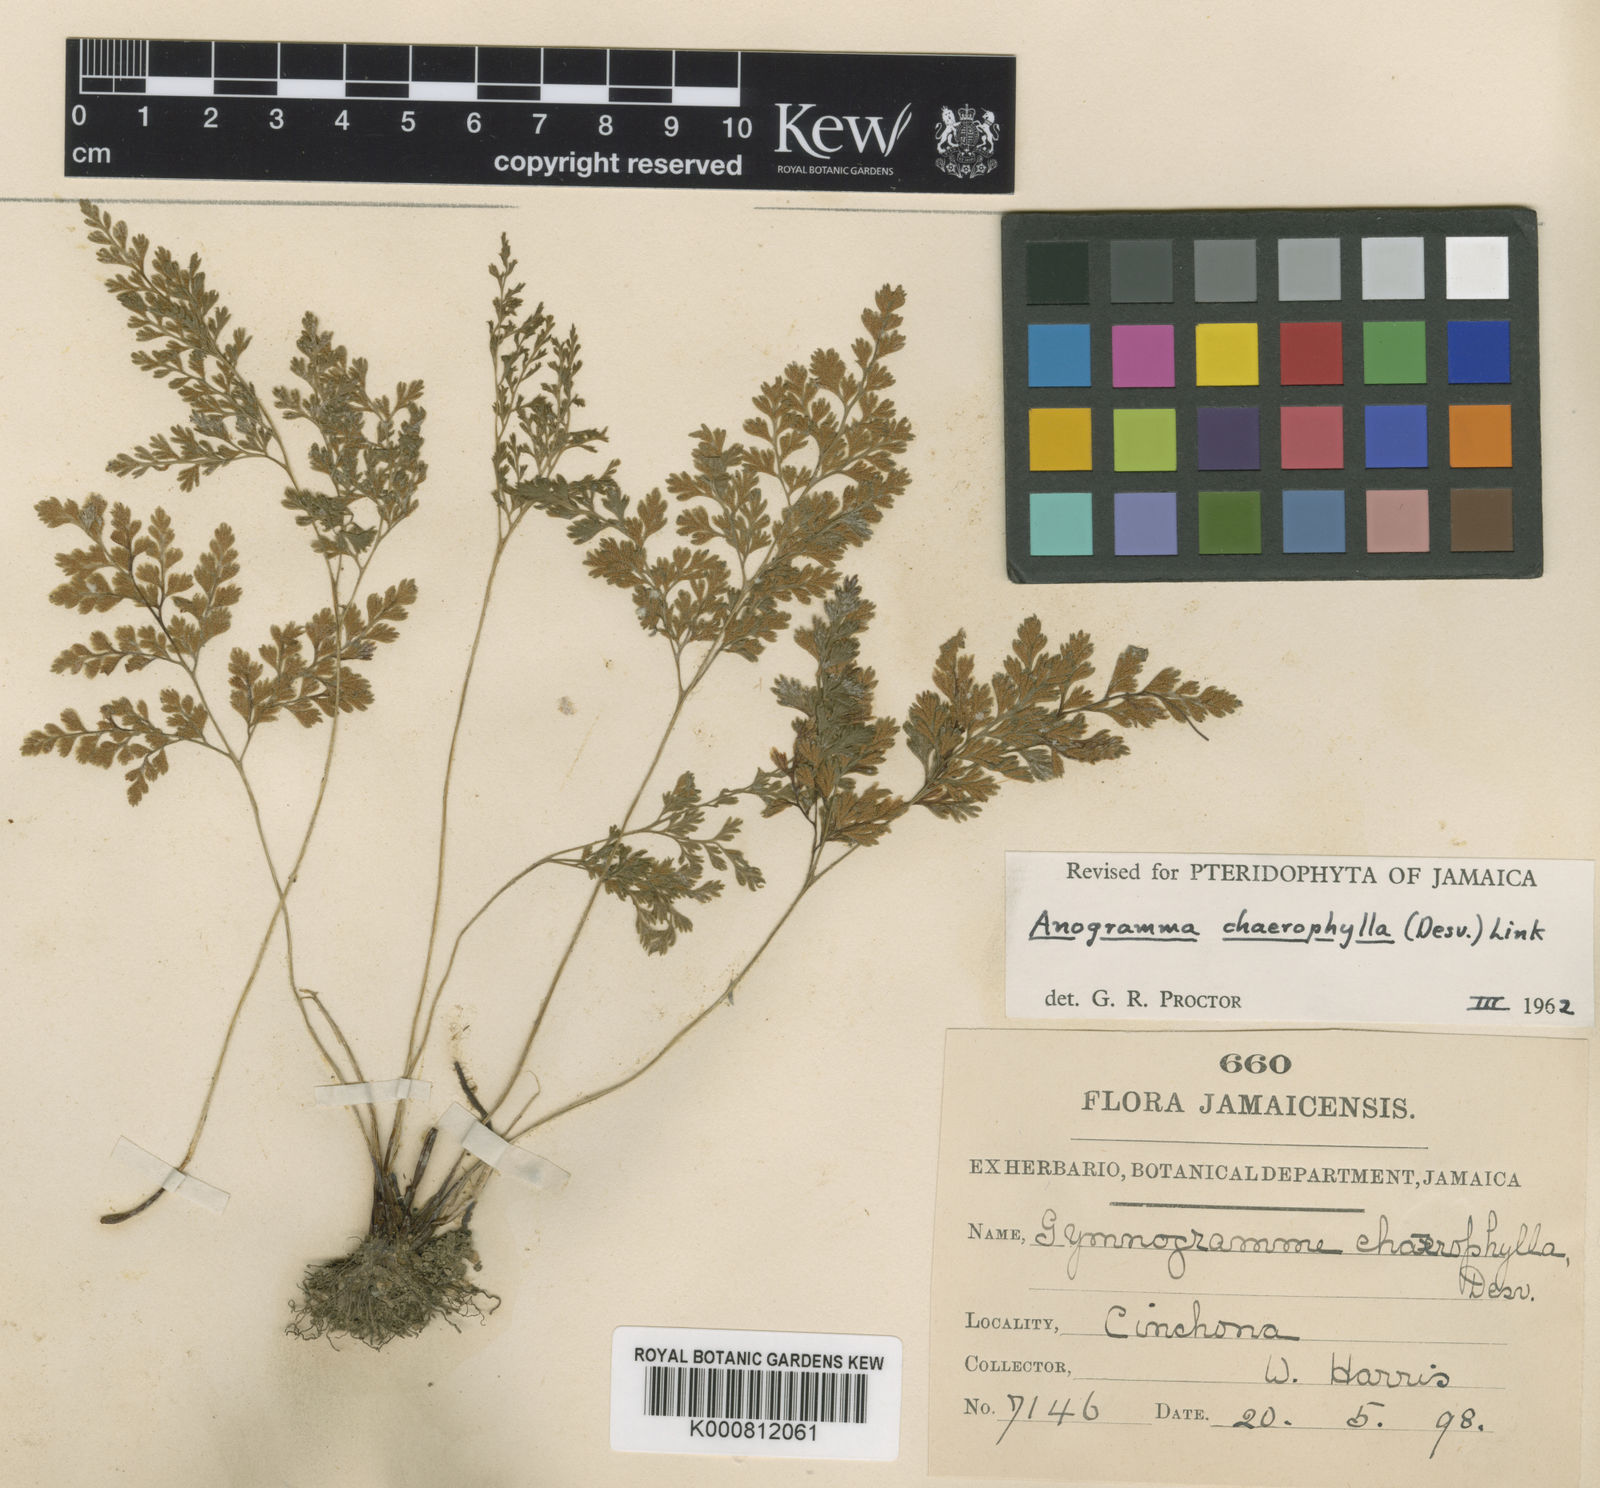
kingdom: Plantae
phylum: Tracheophyta
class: Polypodiopsida
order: Polypodiales
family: Pteridaceae
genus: Gastoniella
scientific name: Gastoniella chaerophylla
